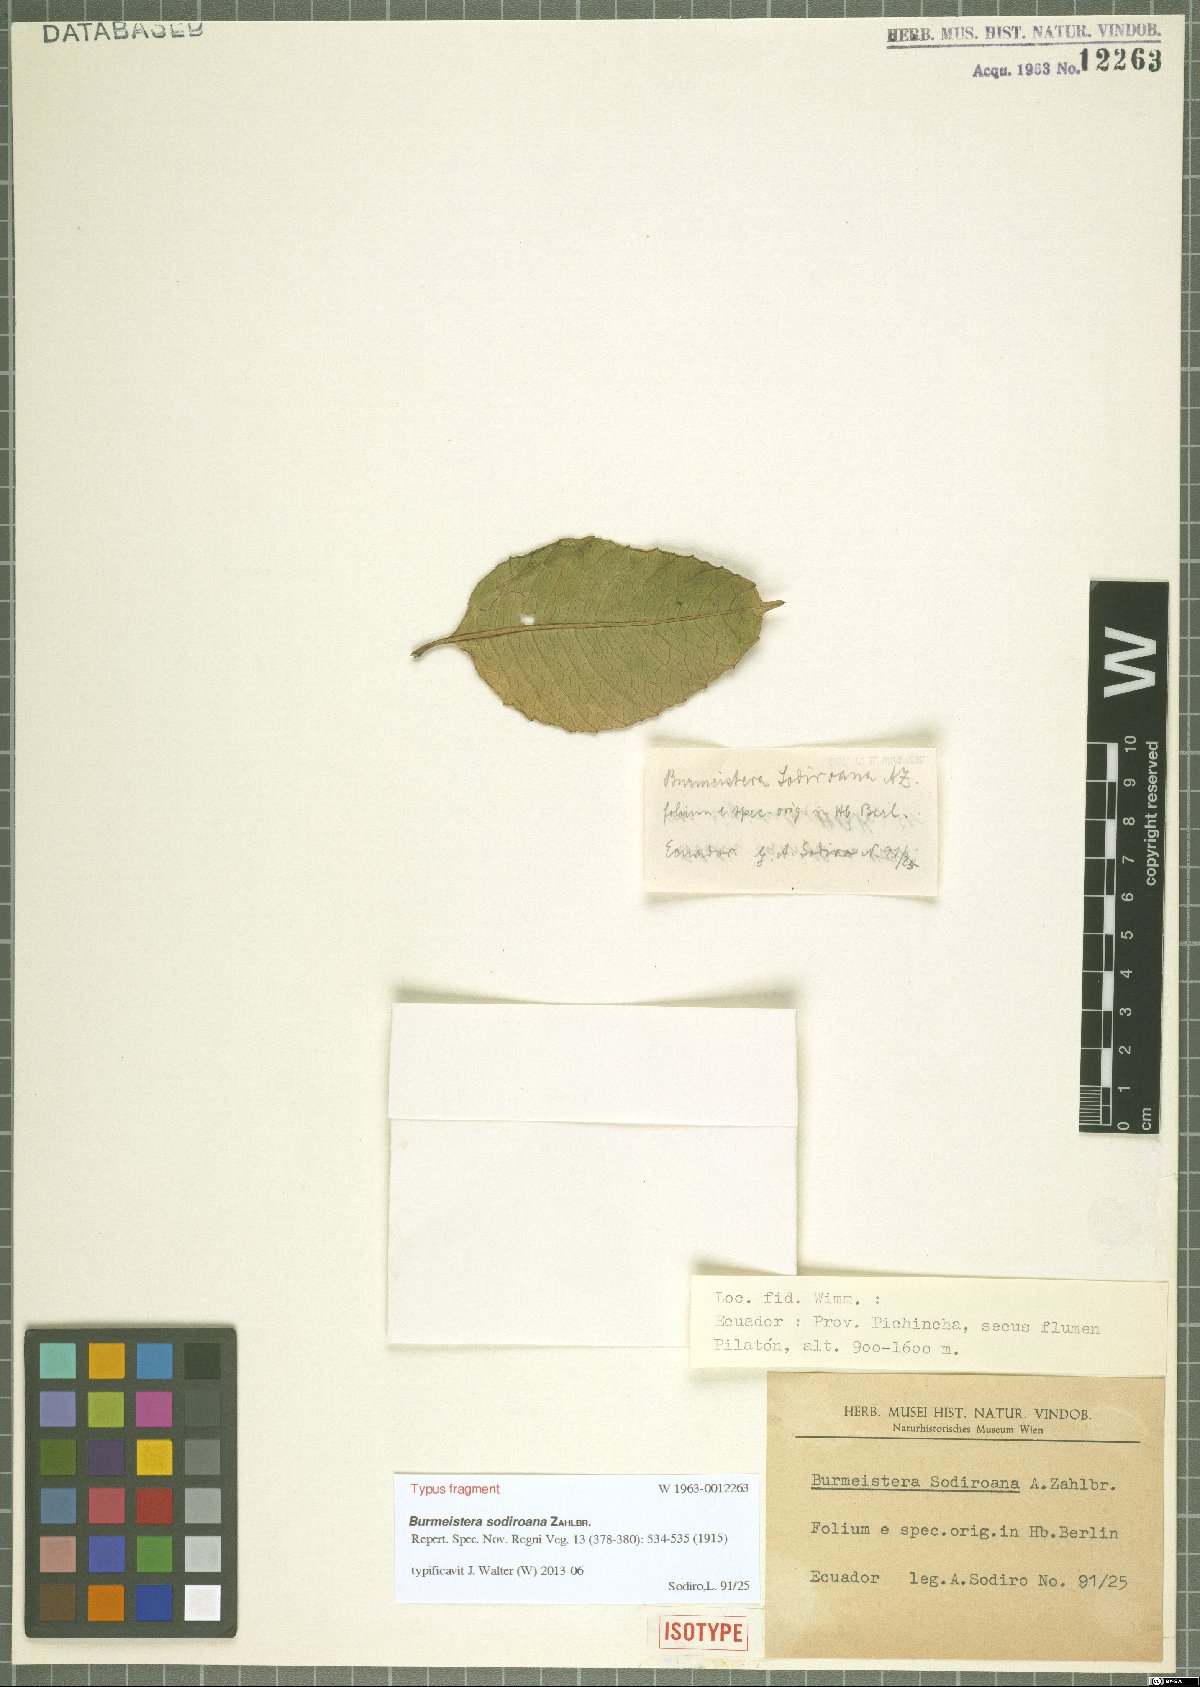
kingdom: Plantae
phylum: Tracheophyta
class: Magnoliopsida
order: Asterales
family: Campanulaceae
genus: Burmeistera
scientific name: Burmeistera sodiroana
